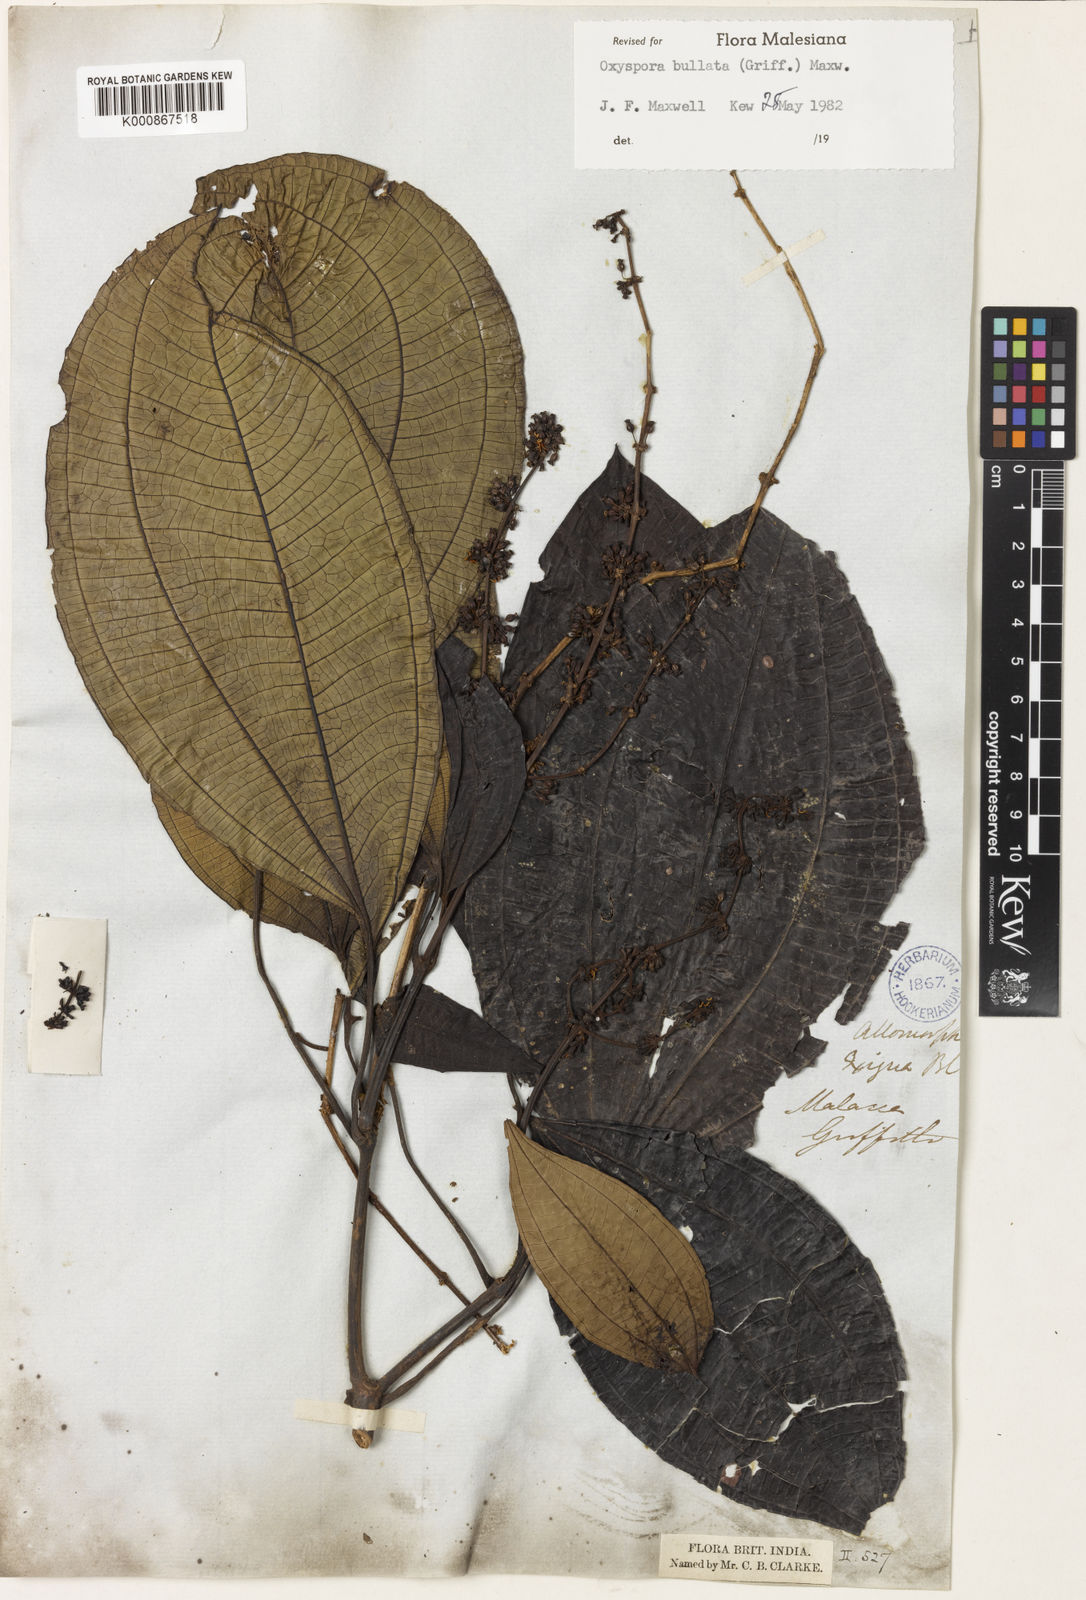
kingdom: Plantae
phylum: Tracheophyta
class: Magnoliopsida
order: Myrtales
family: Melastomataceae
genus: Allomorphia
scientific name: Allomorphia bullata
